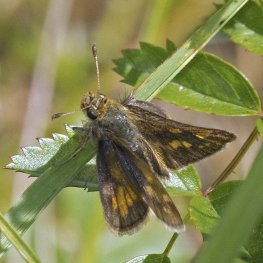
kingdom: Animalia
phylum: Arthropoda
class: Insecta
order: Lepidoptera
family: Hesperiidae
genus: Polites
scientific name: Polites coras
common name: Peck's Skipper
